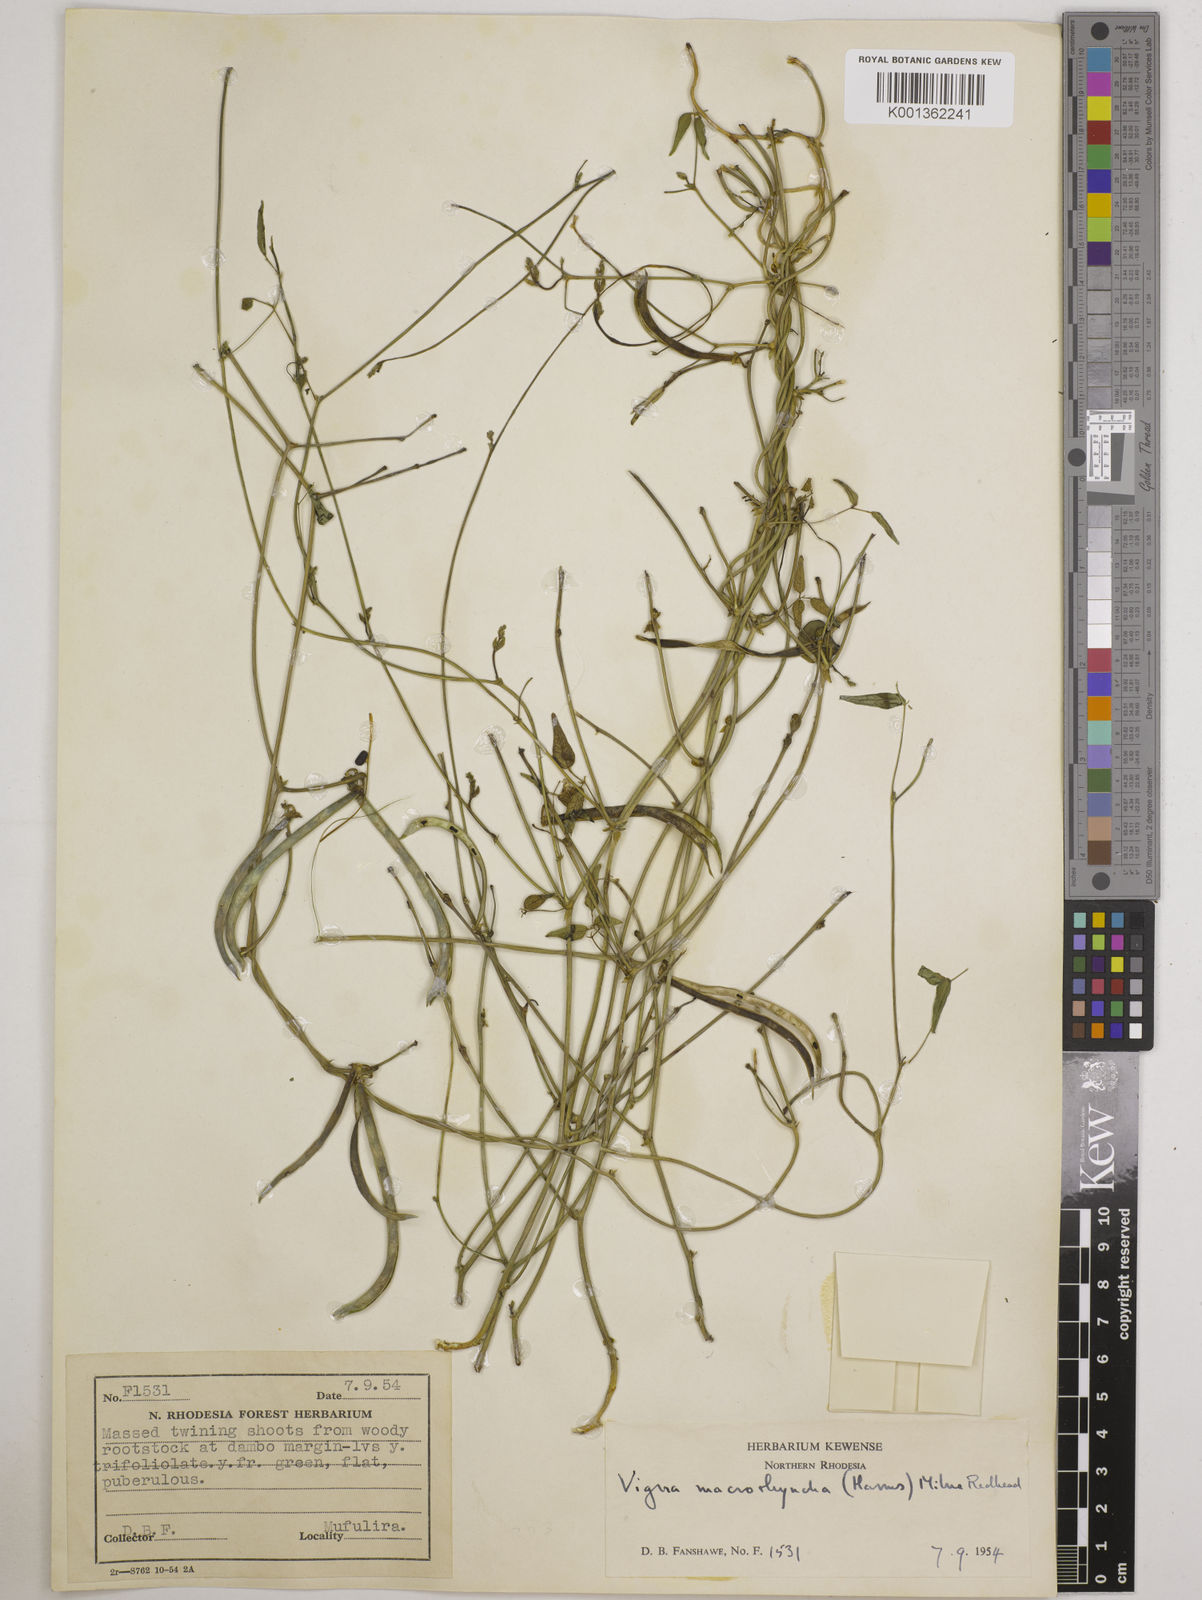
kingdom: Plantae
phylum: Tracheophyta
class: Magnoliopsida
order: Fabales
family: Fabaceae
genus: Wajira
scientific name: Wajira grahamiana
